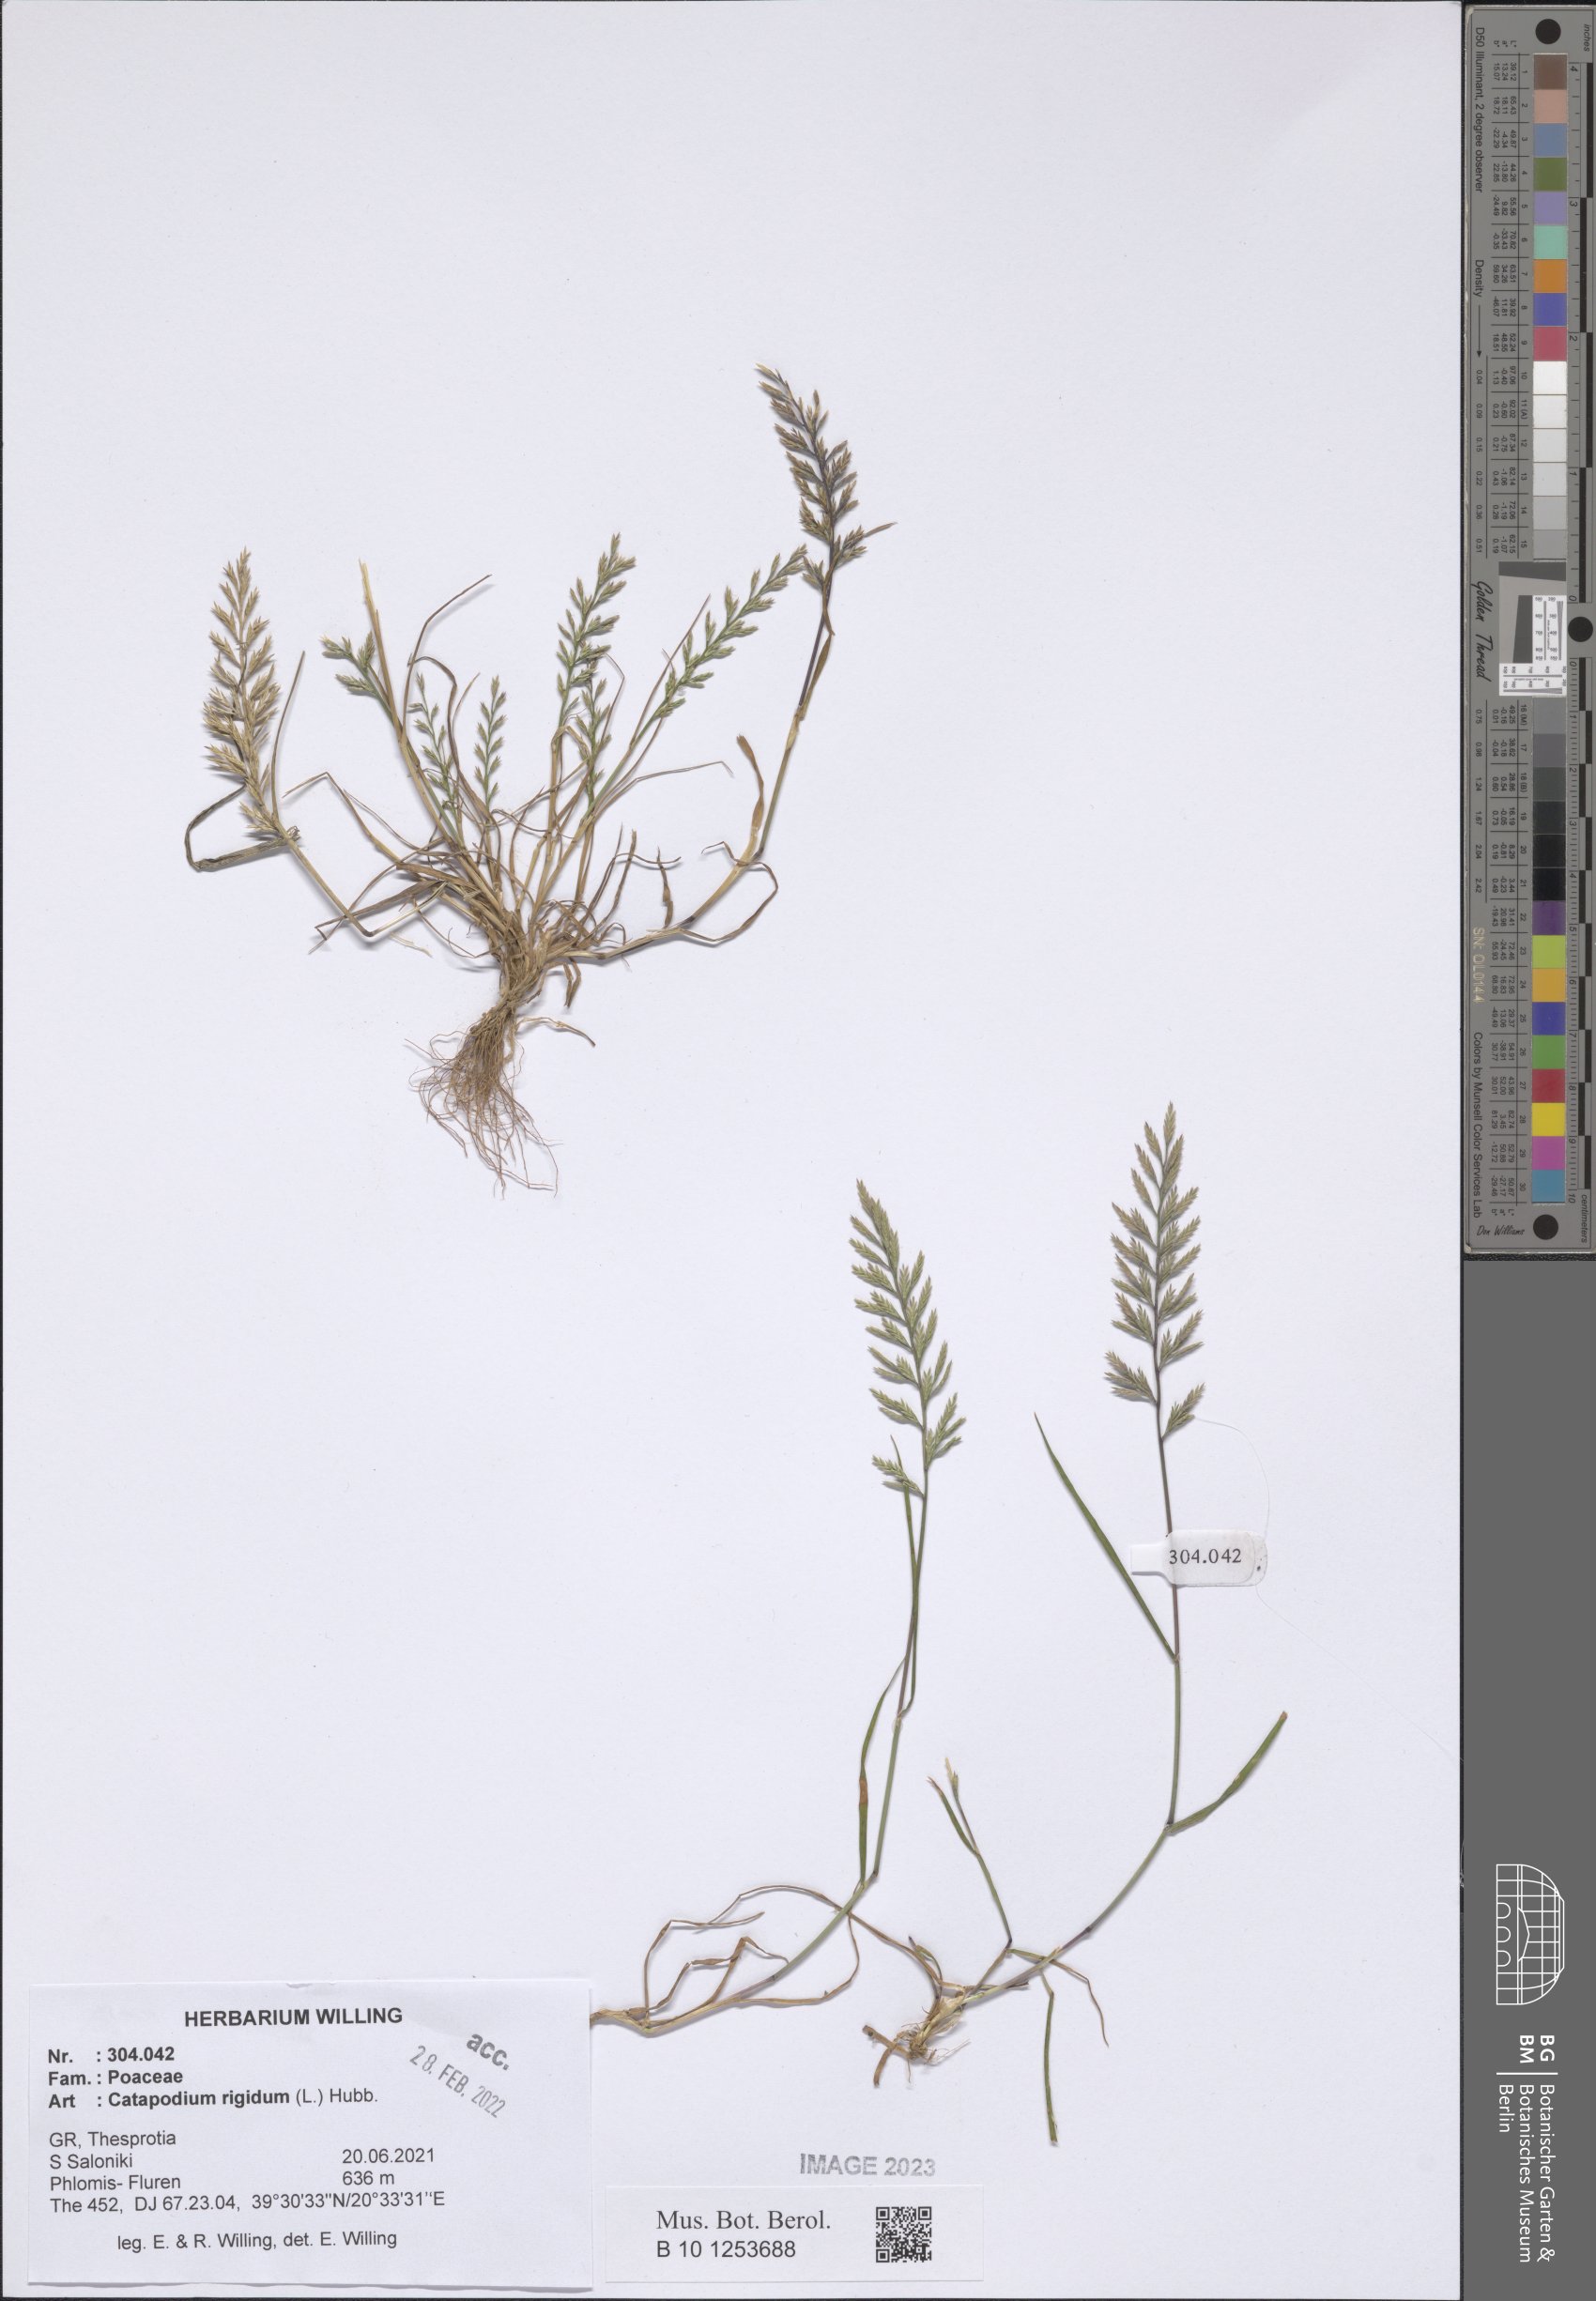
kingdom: Plantae
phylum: Tracheophyta
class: Liliopsida
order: Poales
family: Poaceae
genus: Catapodium
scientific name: Catapodium rigidum
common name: Fern-grass
